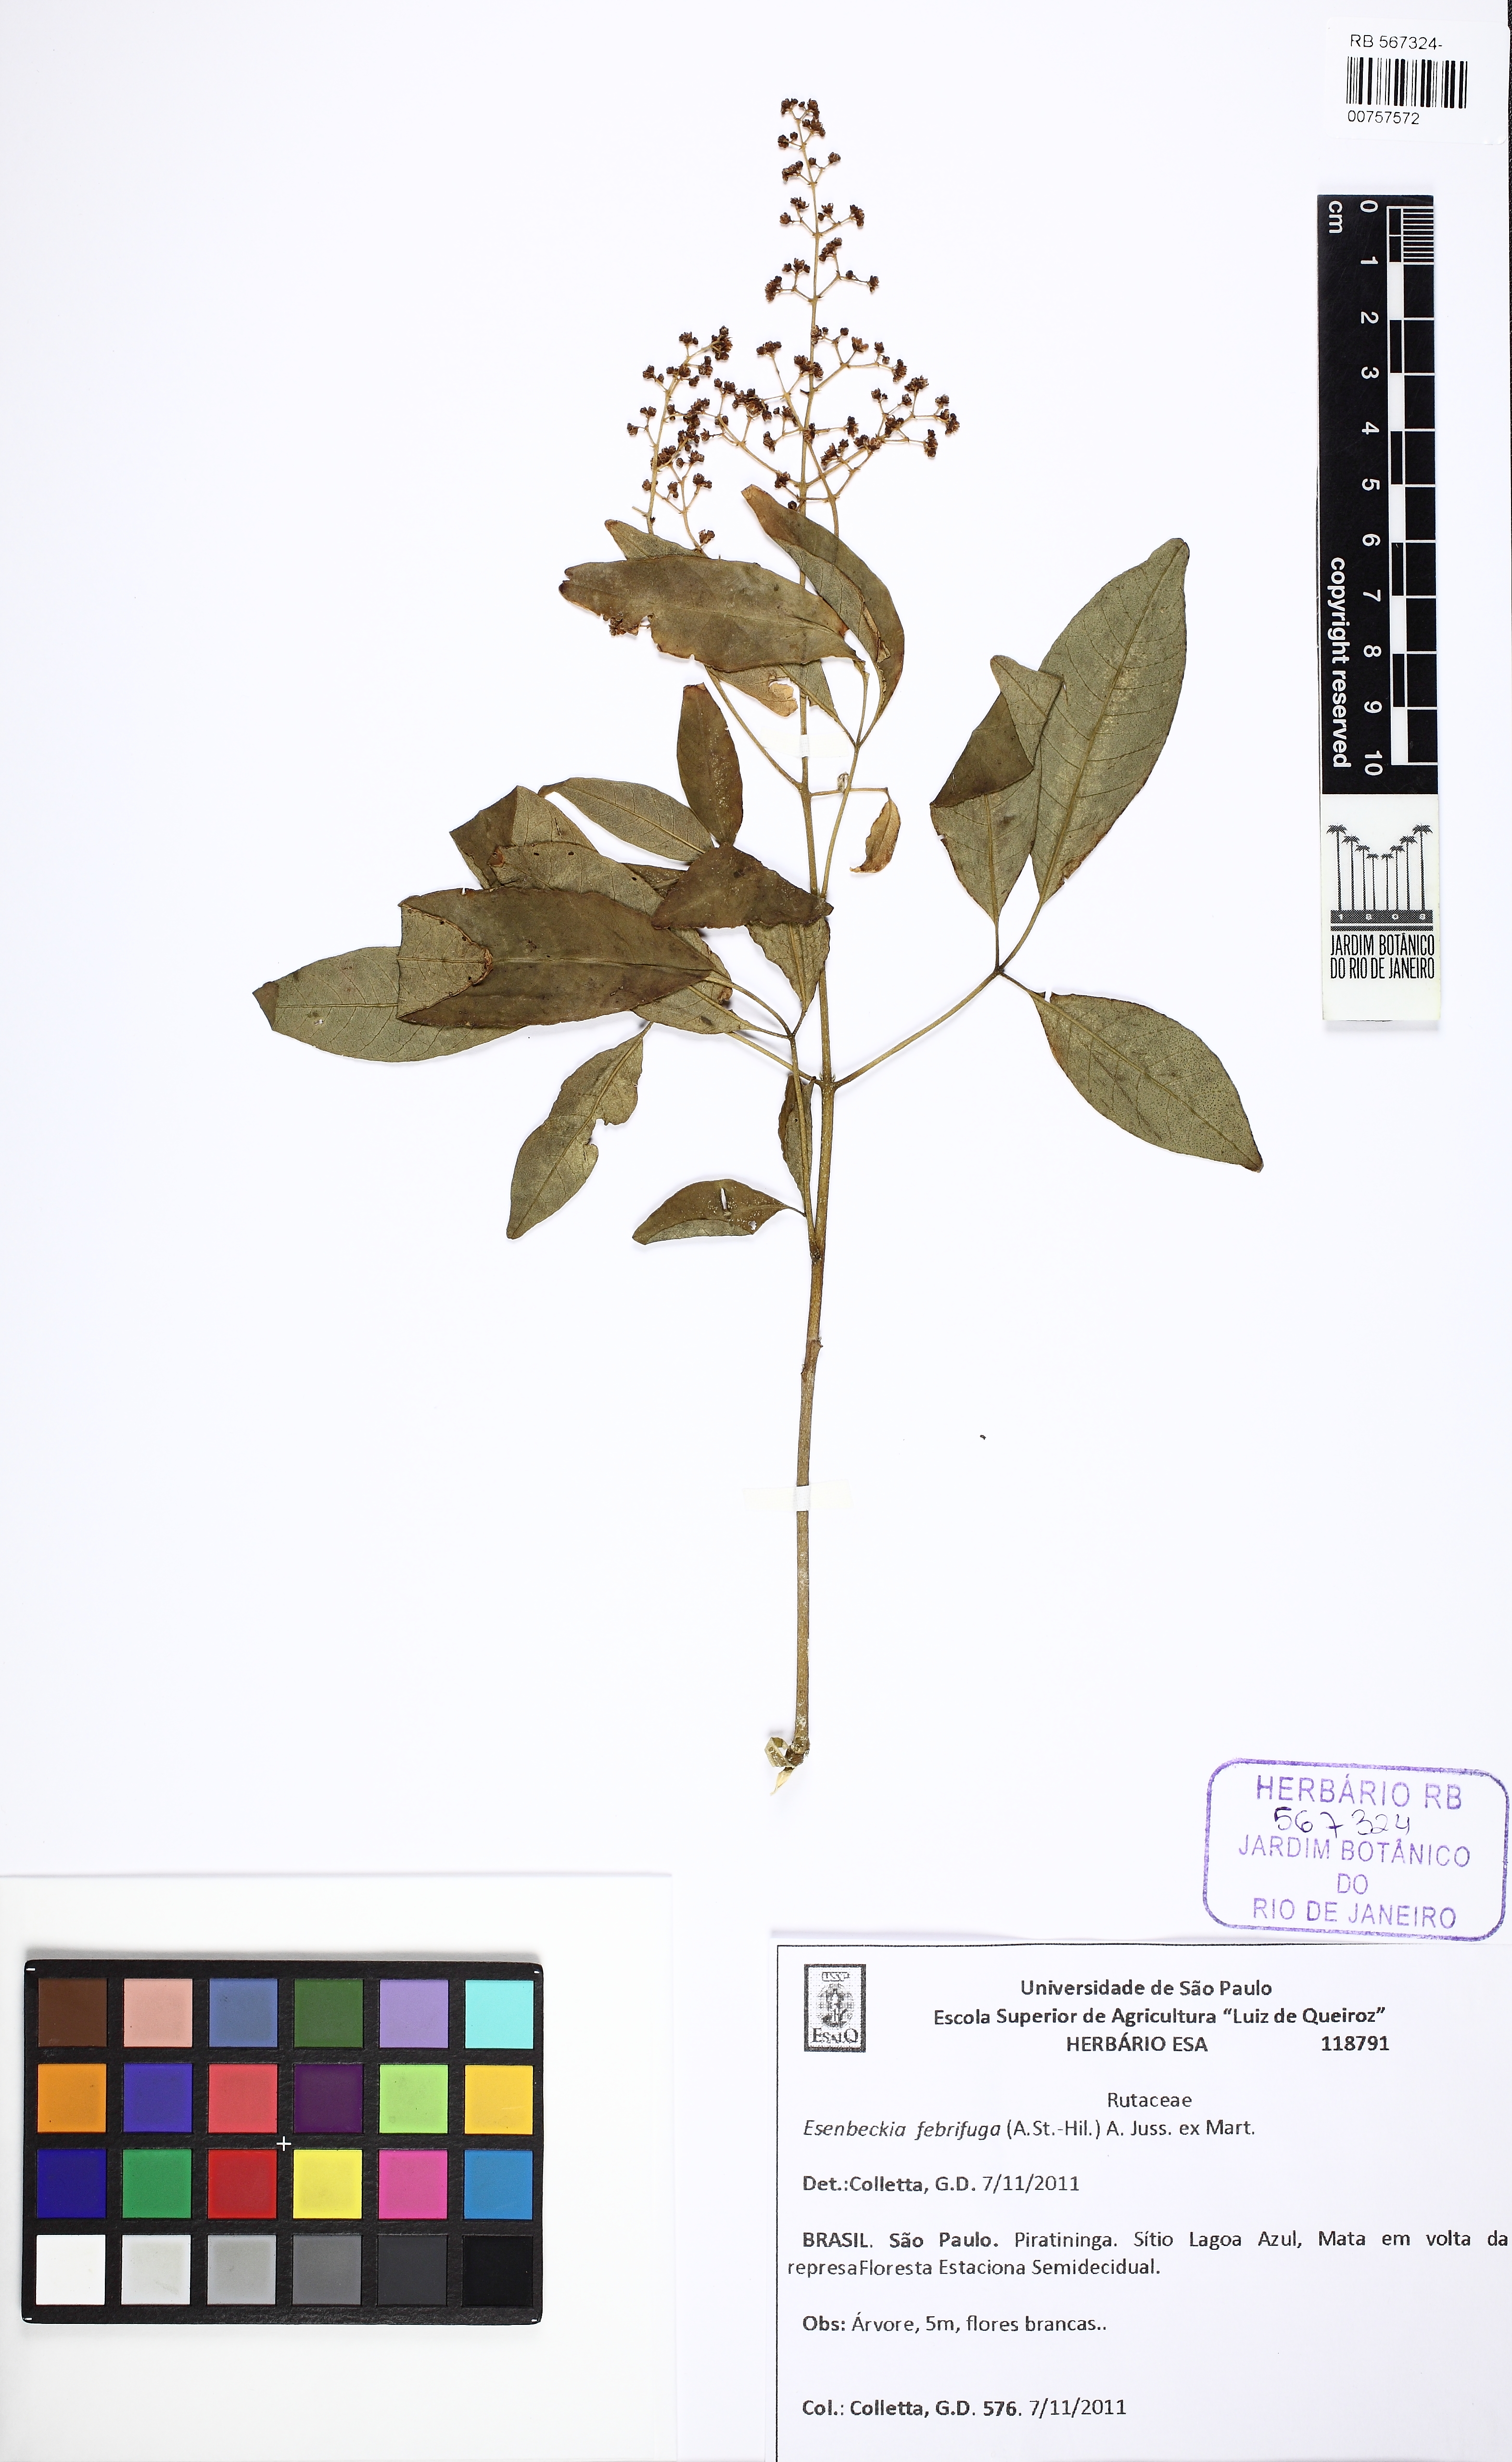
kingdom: Plantae
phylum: Tracheophyta
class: Magnoliopsida
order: Sapindales
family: Rutaceae
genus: Esenbeckia
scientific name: Esenbeckia febrifuga
